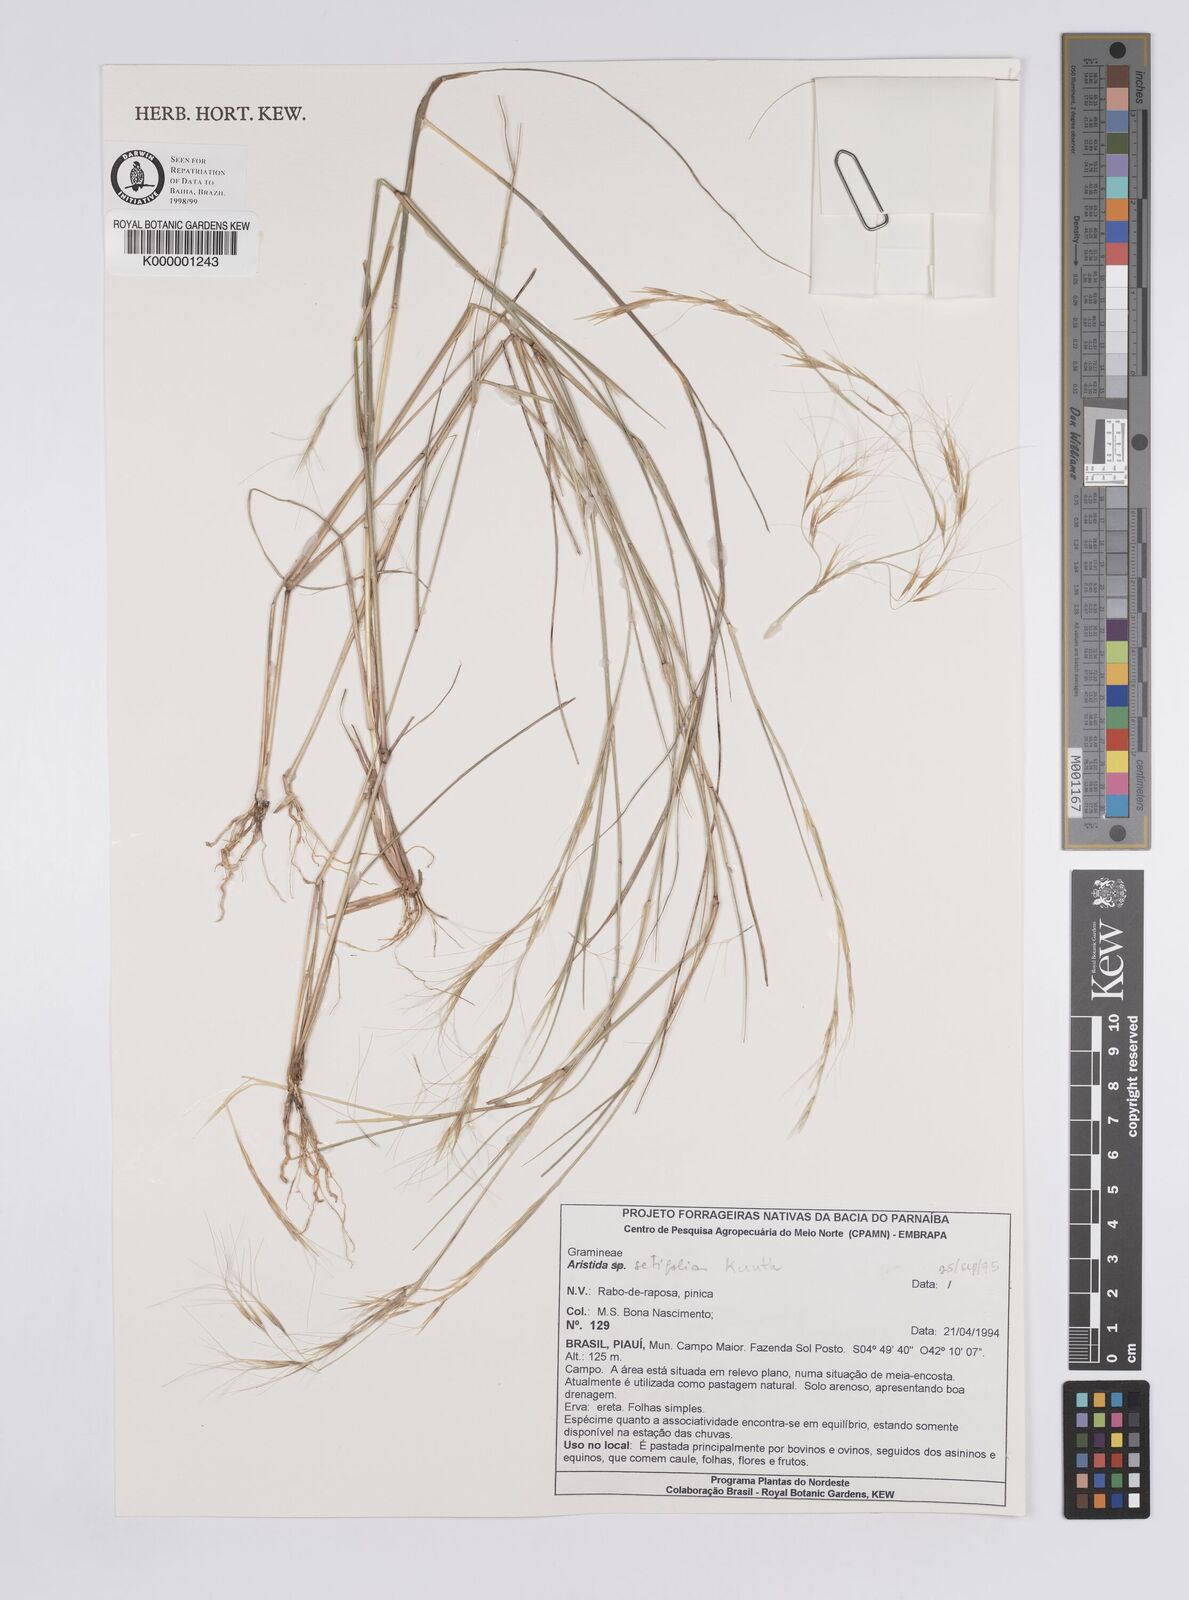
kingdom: Plantae
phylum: Tracheophyta
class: Liliopsida
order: Poales
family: Poaceae
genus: Aristida
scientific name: Aristida setifolia
